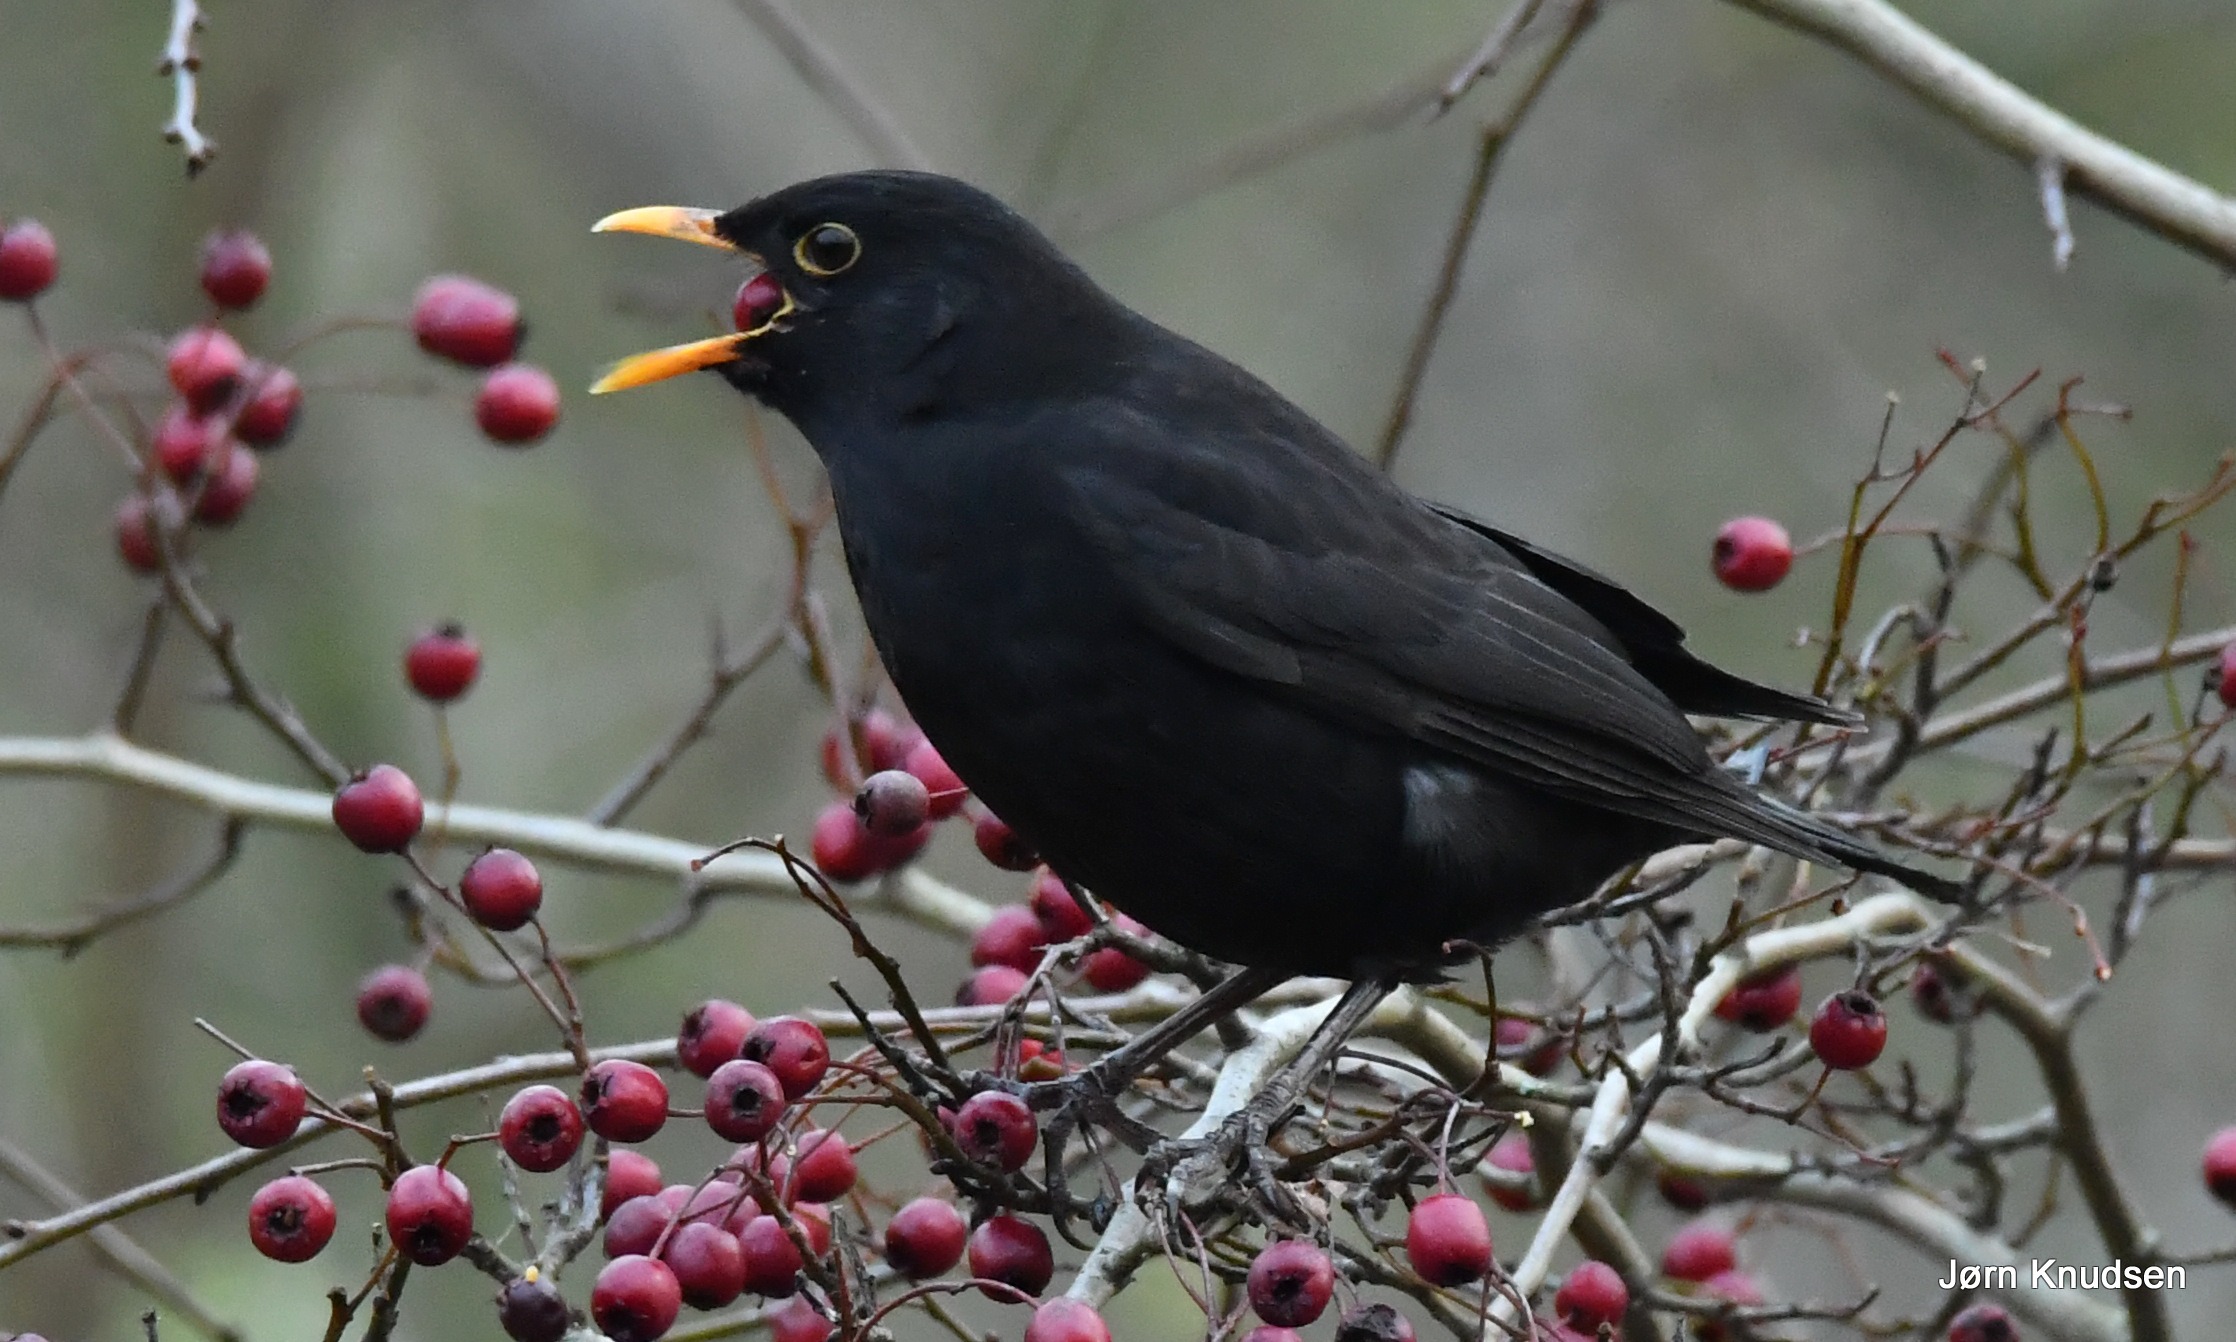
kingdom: Animalia
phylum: Chordata
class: Aves
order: Passeriformes
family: Turdidae
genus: Turdus
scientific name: Turdus merula
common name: Solsort
